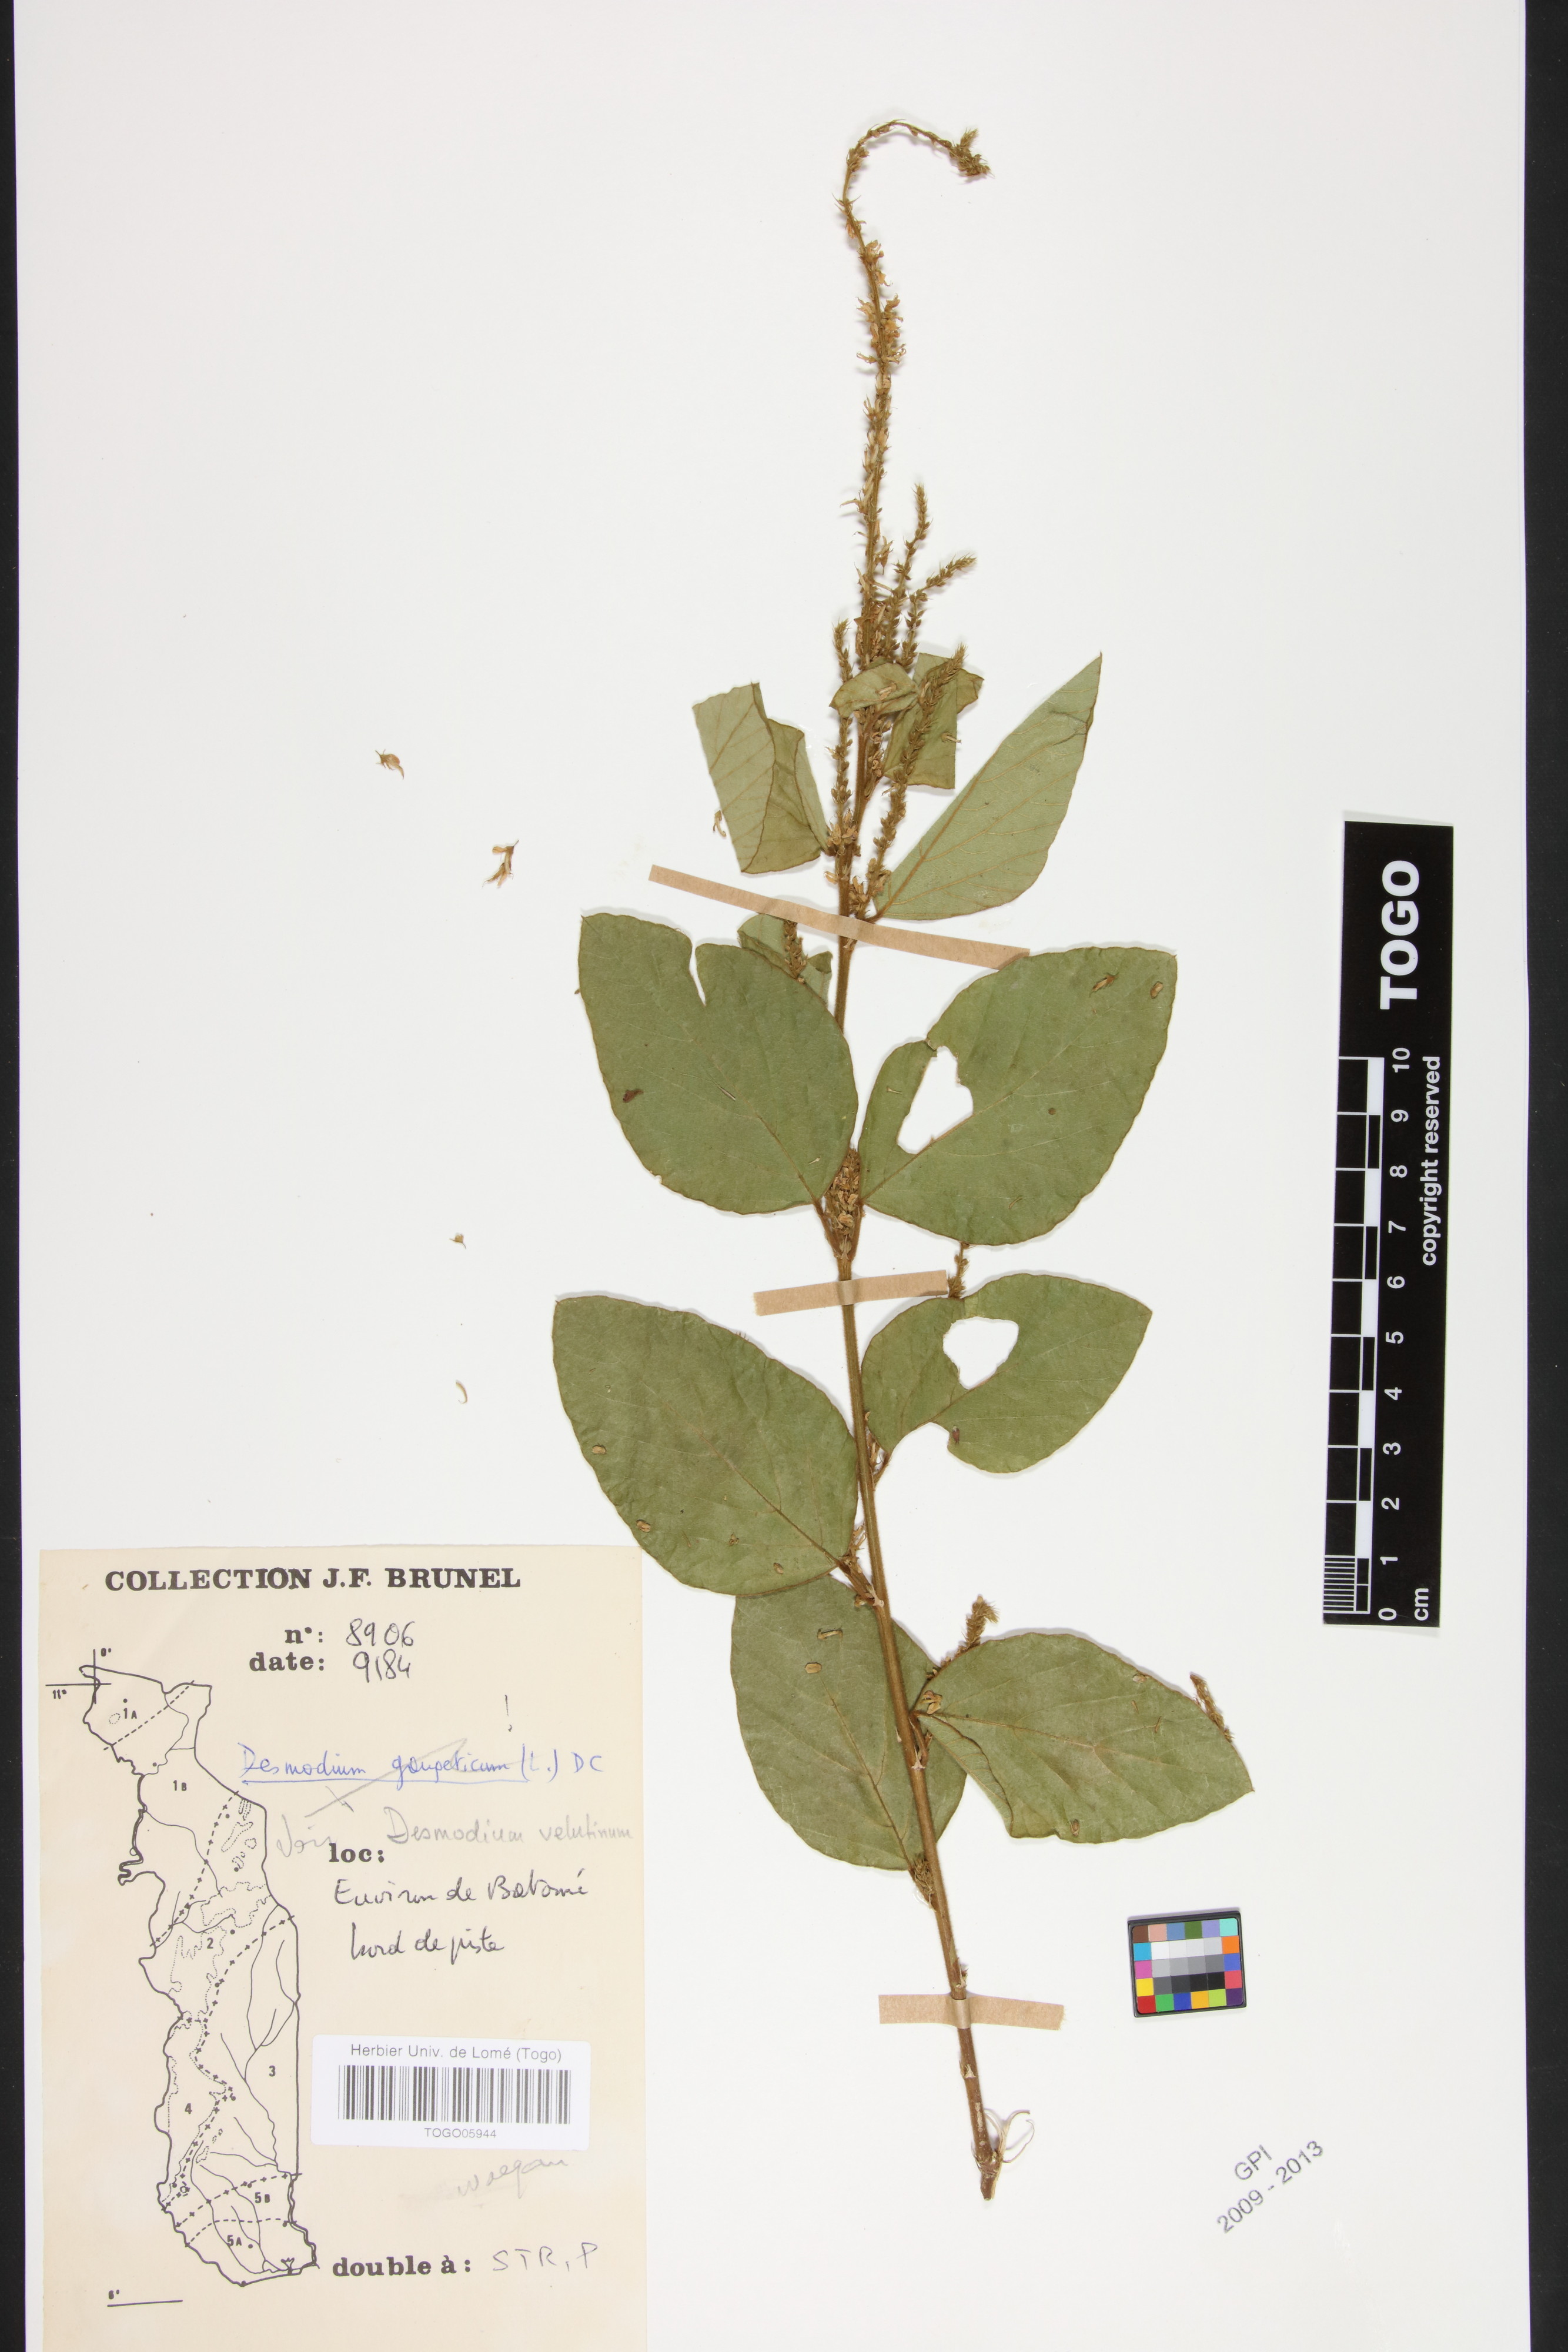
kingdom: Plantae
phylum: Tracheophyta
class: Magnoliopsida
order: Fabales
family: Fabaceae
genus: Polhillides
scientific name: Polhillides velutina
